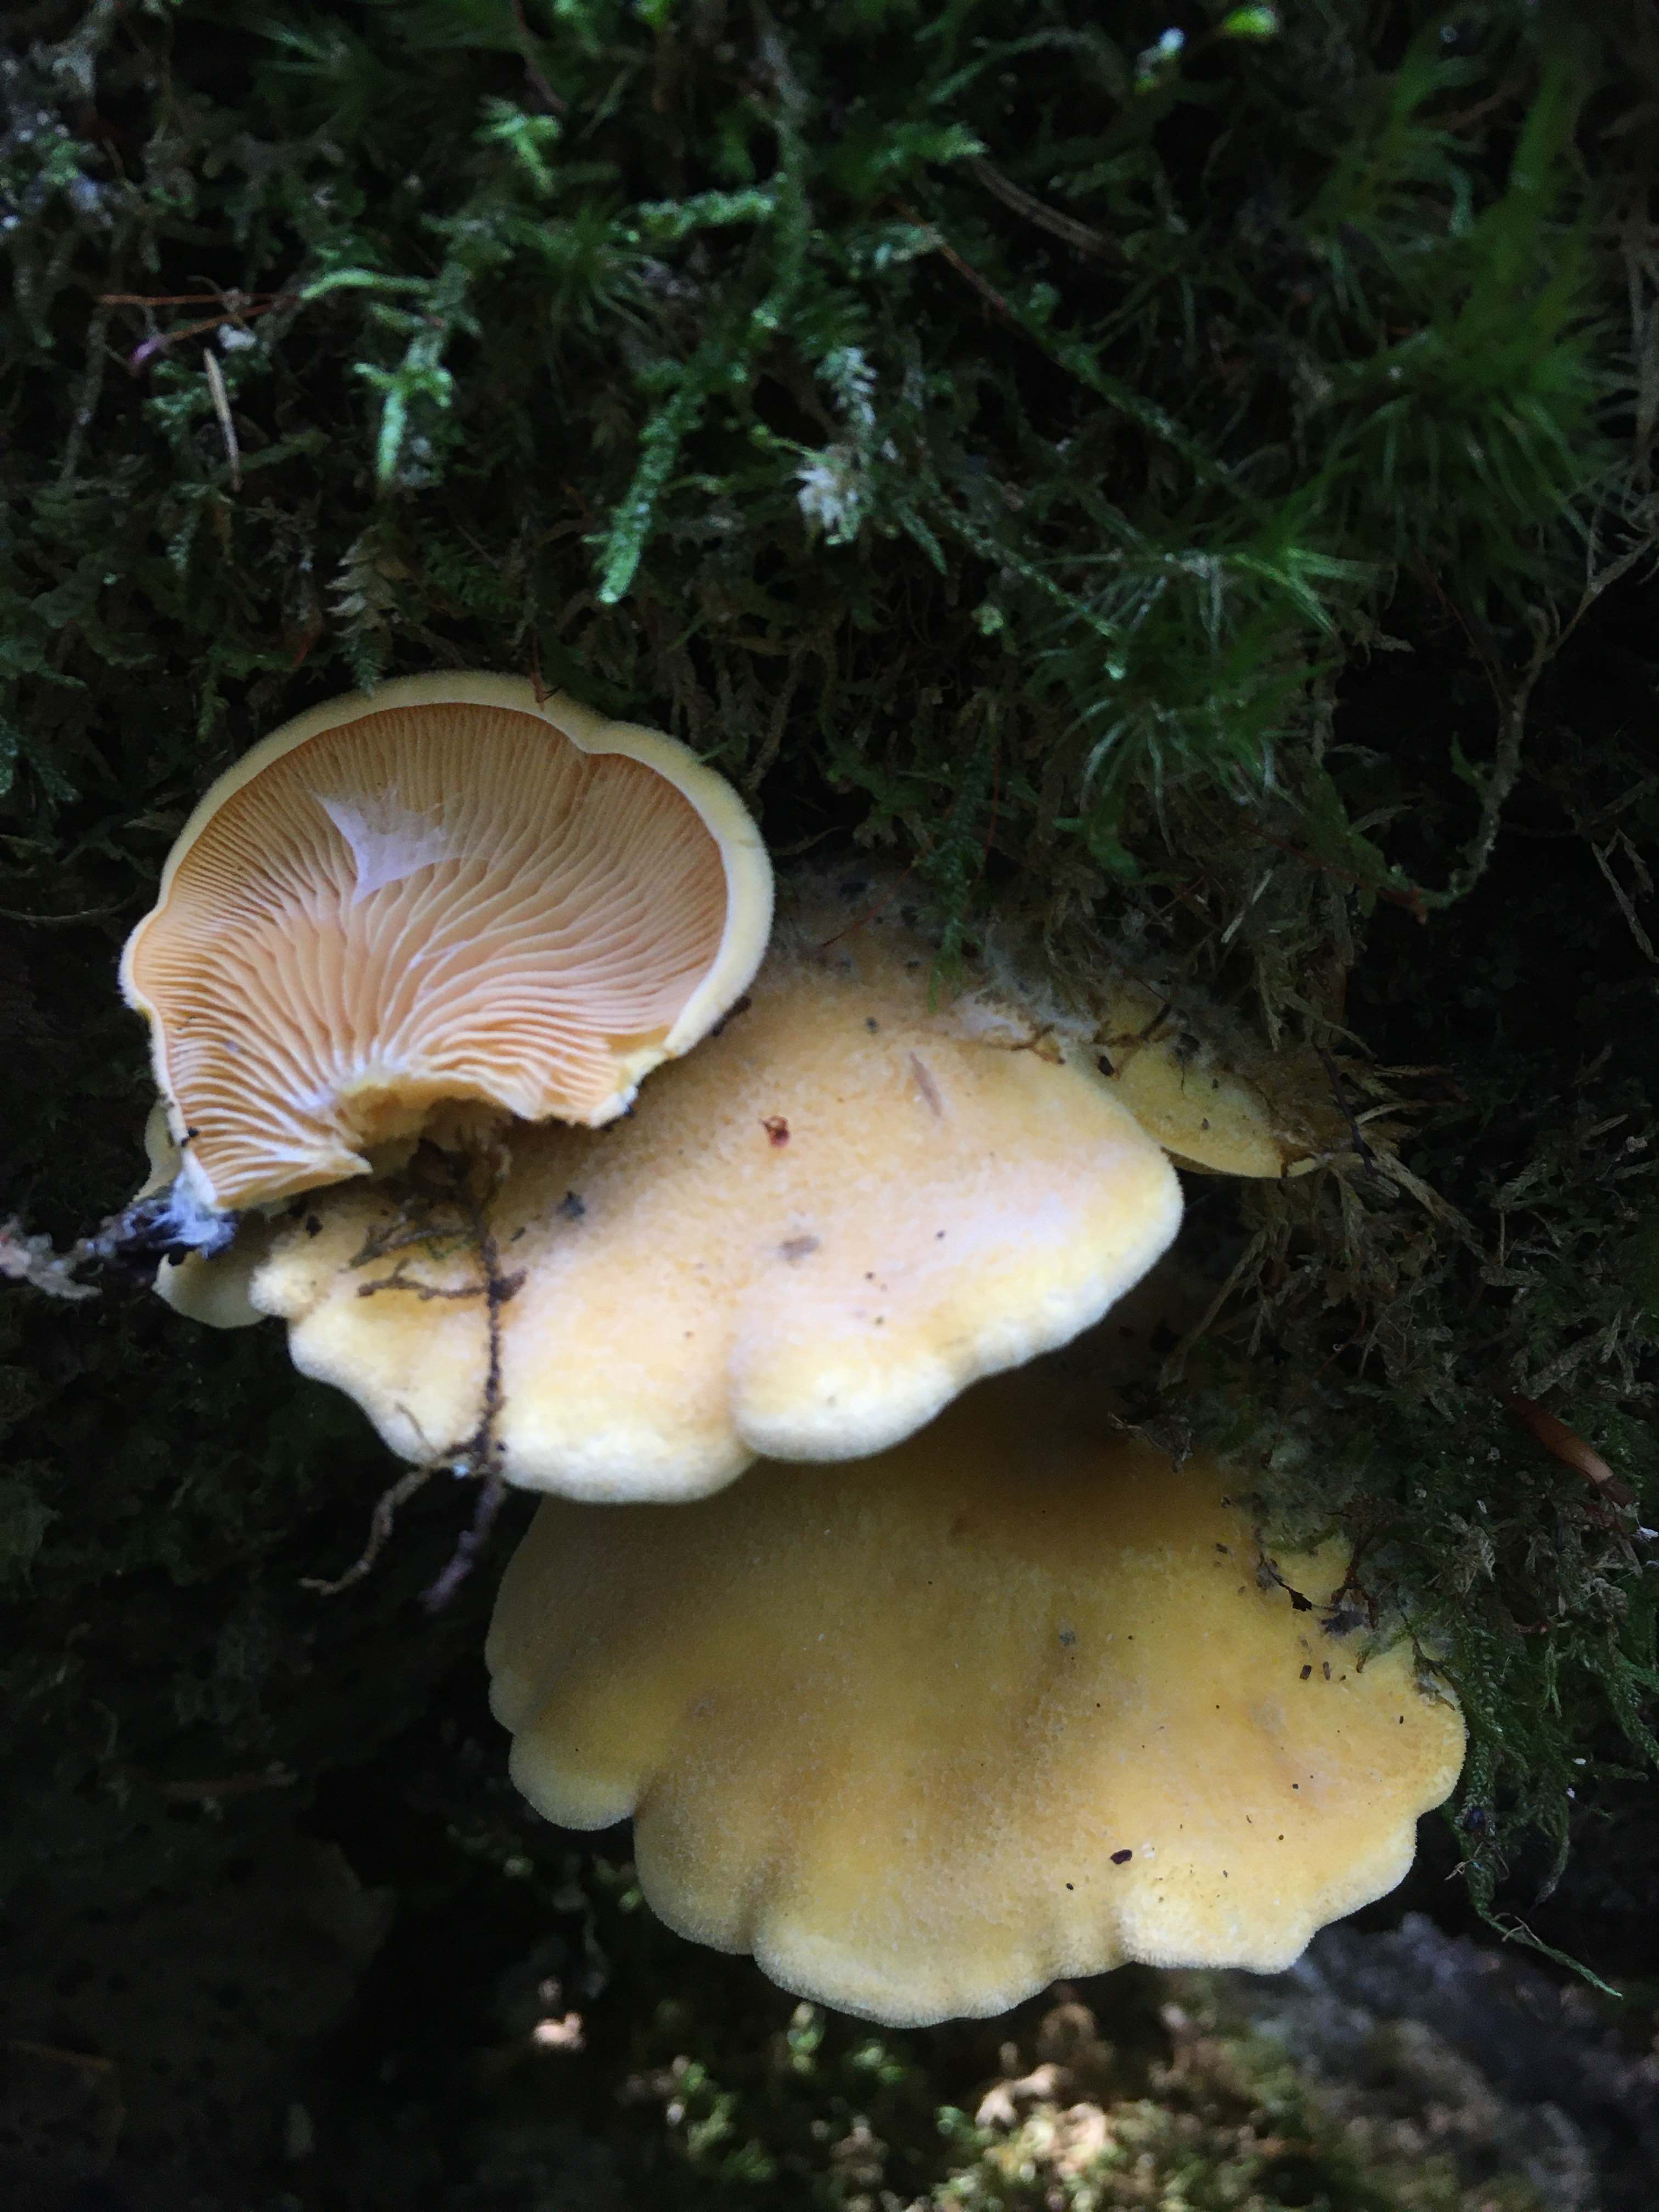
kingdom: Fungi
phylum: Basidiomycota
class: Agaricomycetes
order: Agaricales
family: Phyllotopsidaceae
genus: Phyllotopsis
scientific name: Phyllotopsis nidulans
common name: okkerblad
